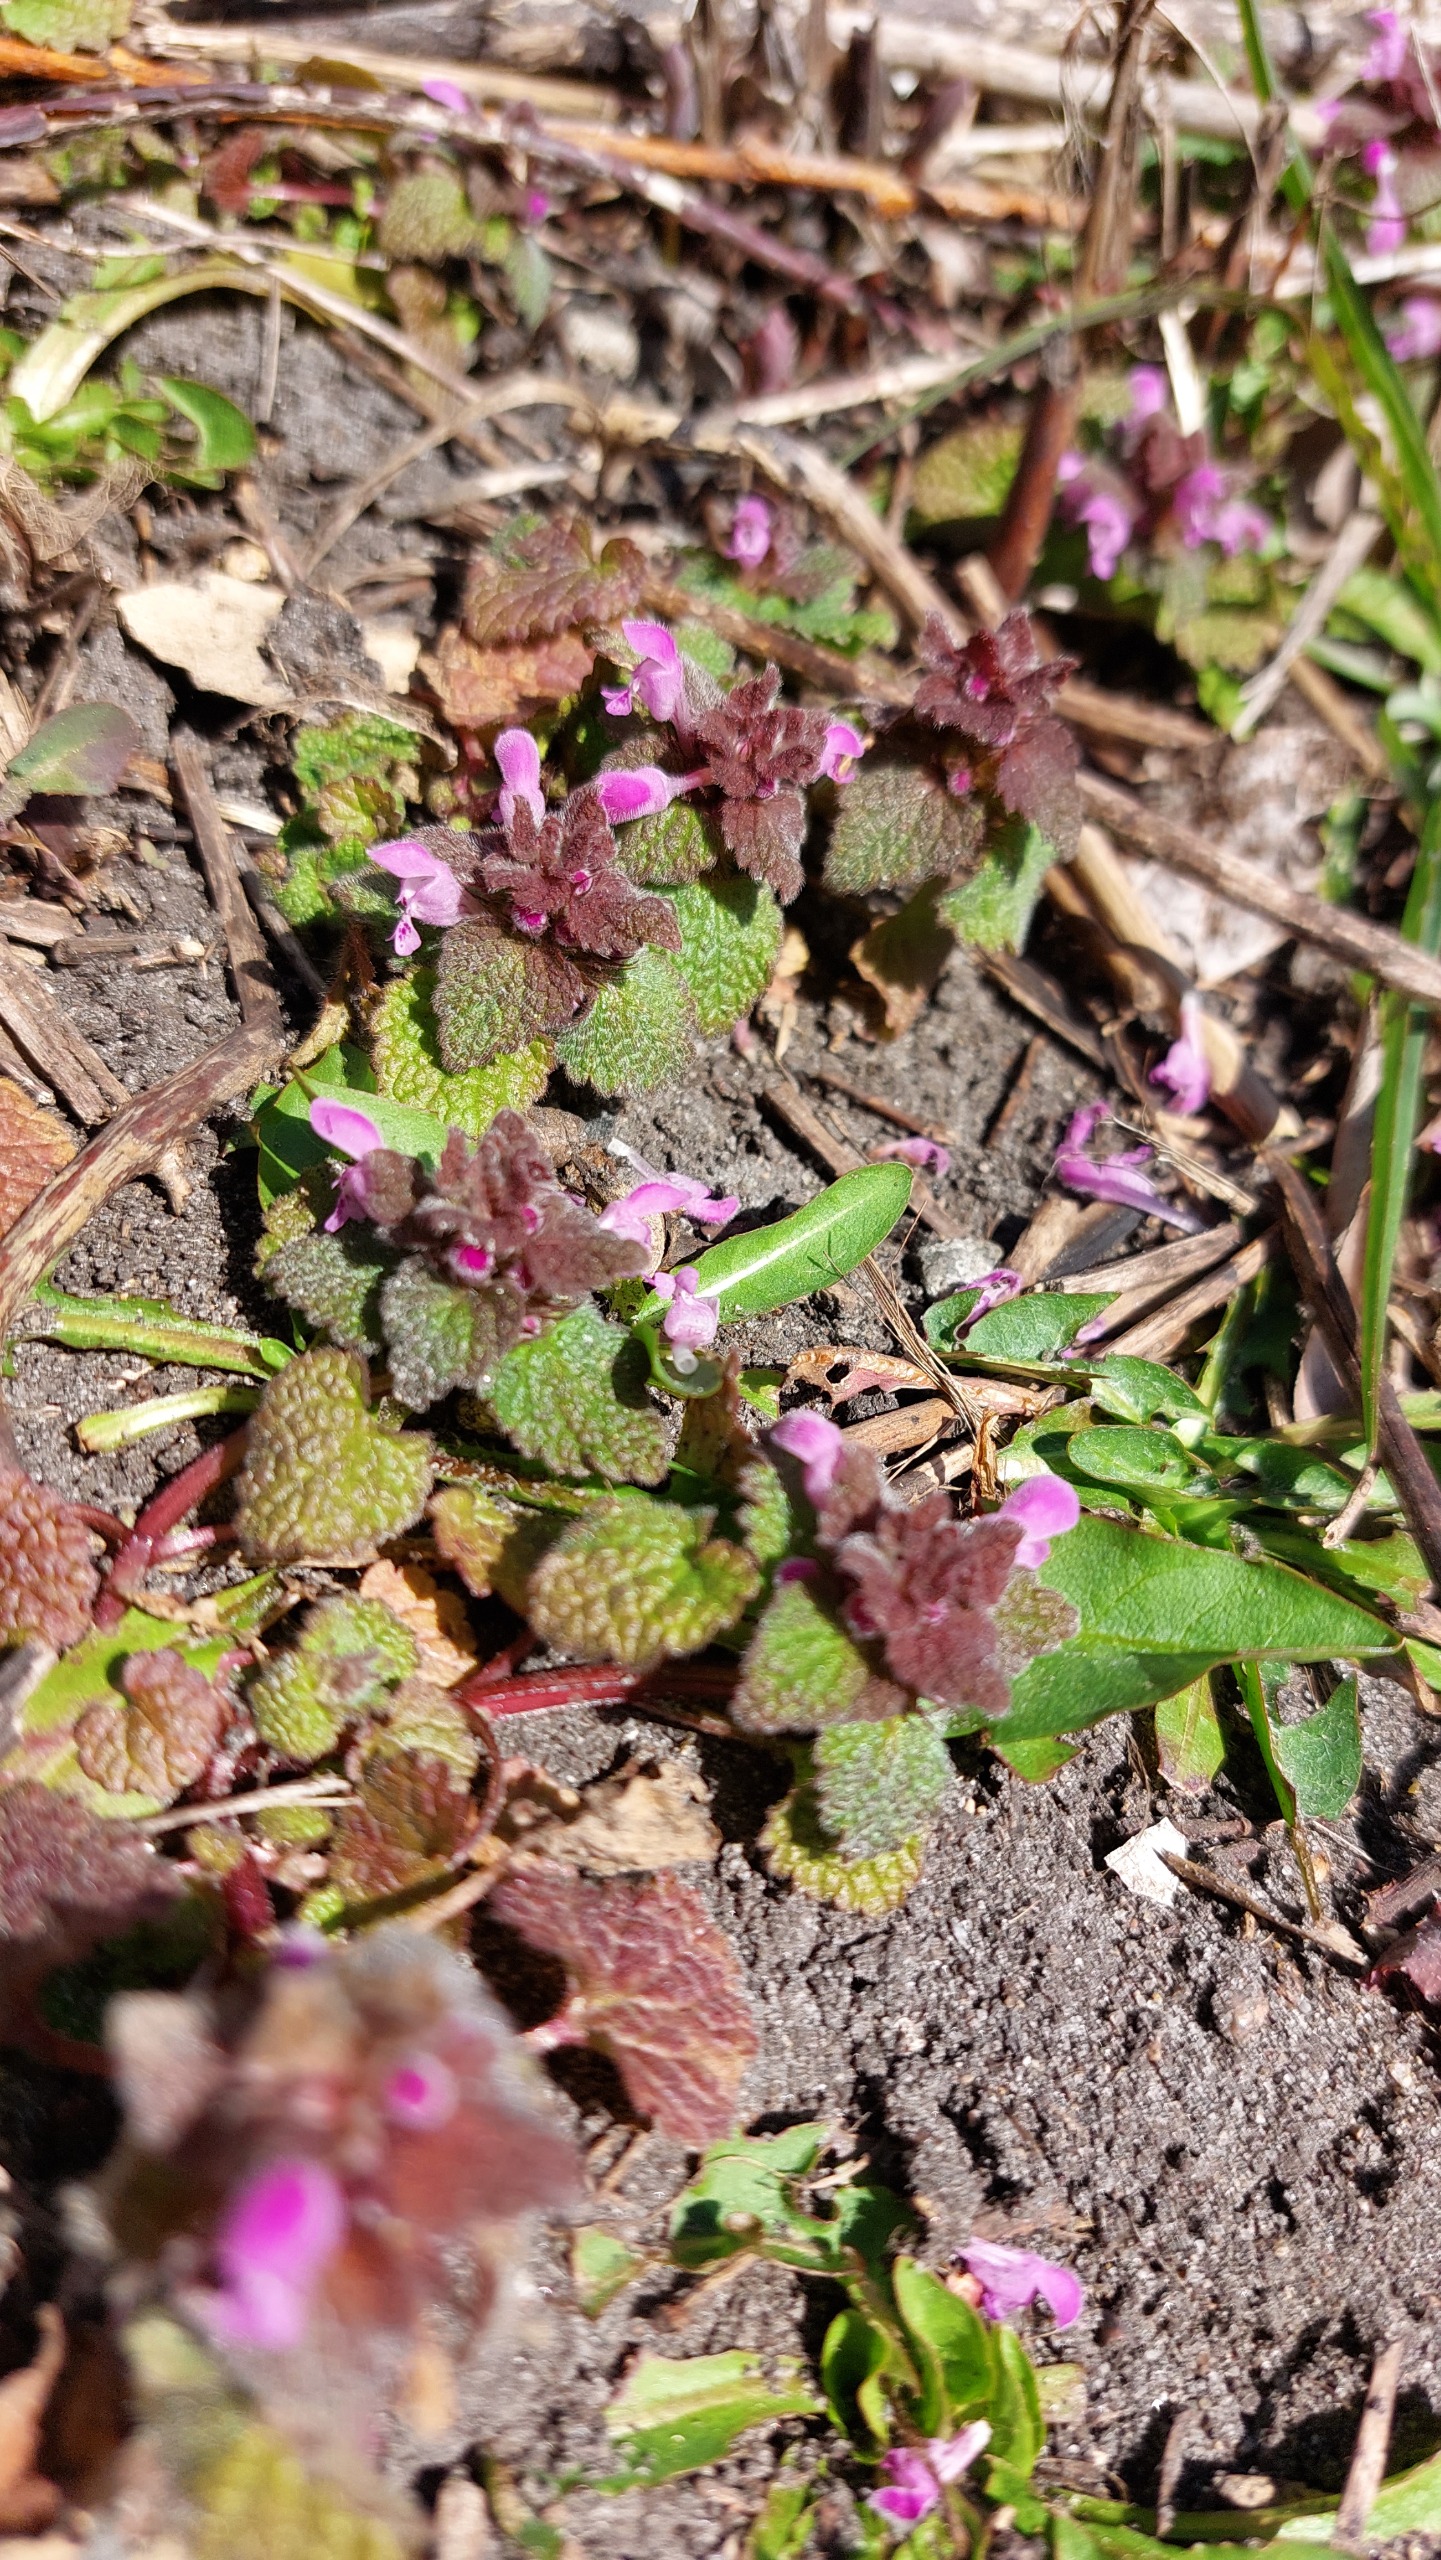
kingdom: Plantae
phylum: Tracheophyta
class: Magnoliopsida
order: Lamiales
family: Lamiaceae
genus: Lamium
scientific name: Lamium purpureum
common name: Rød tvetand
